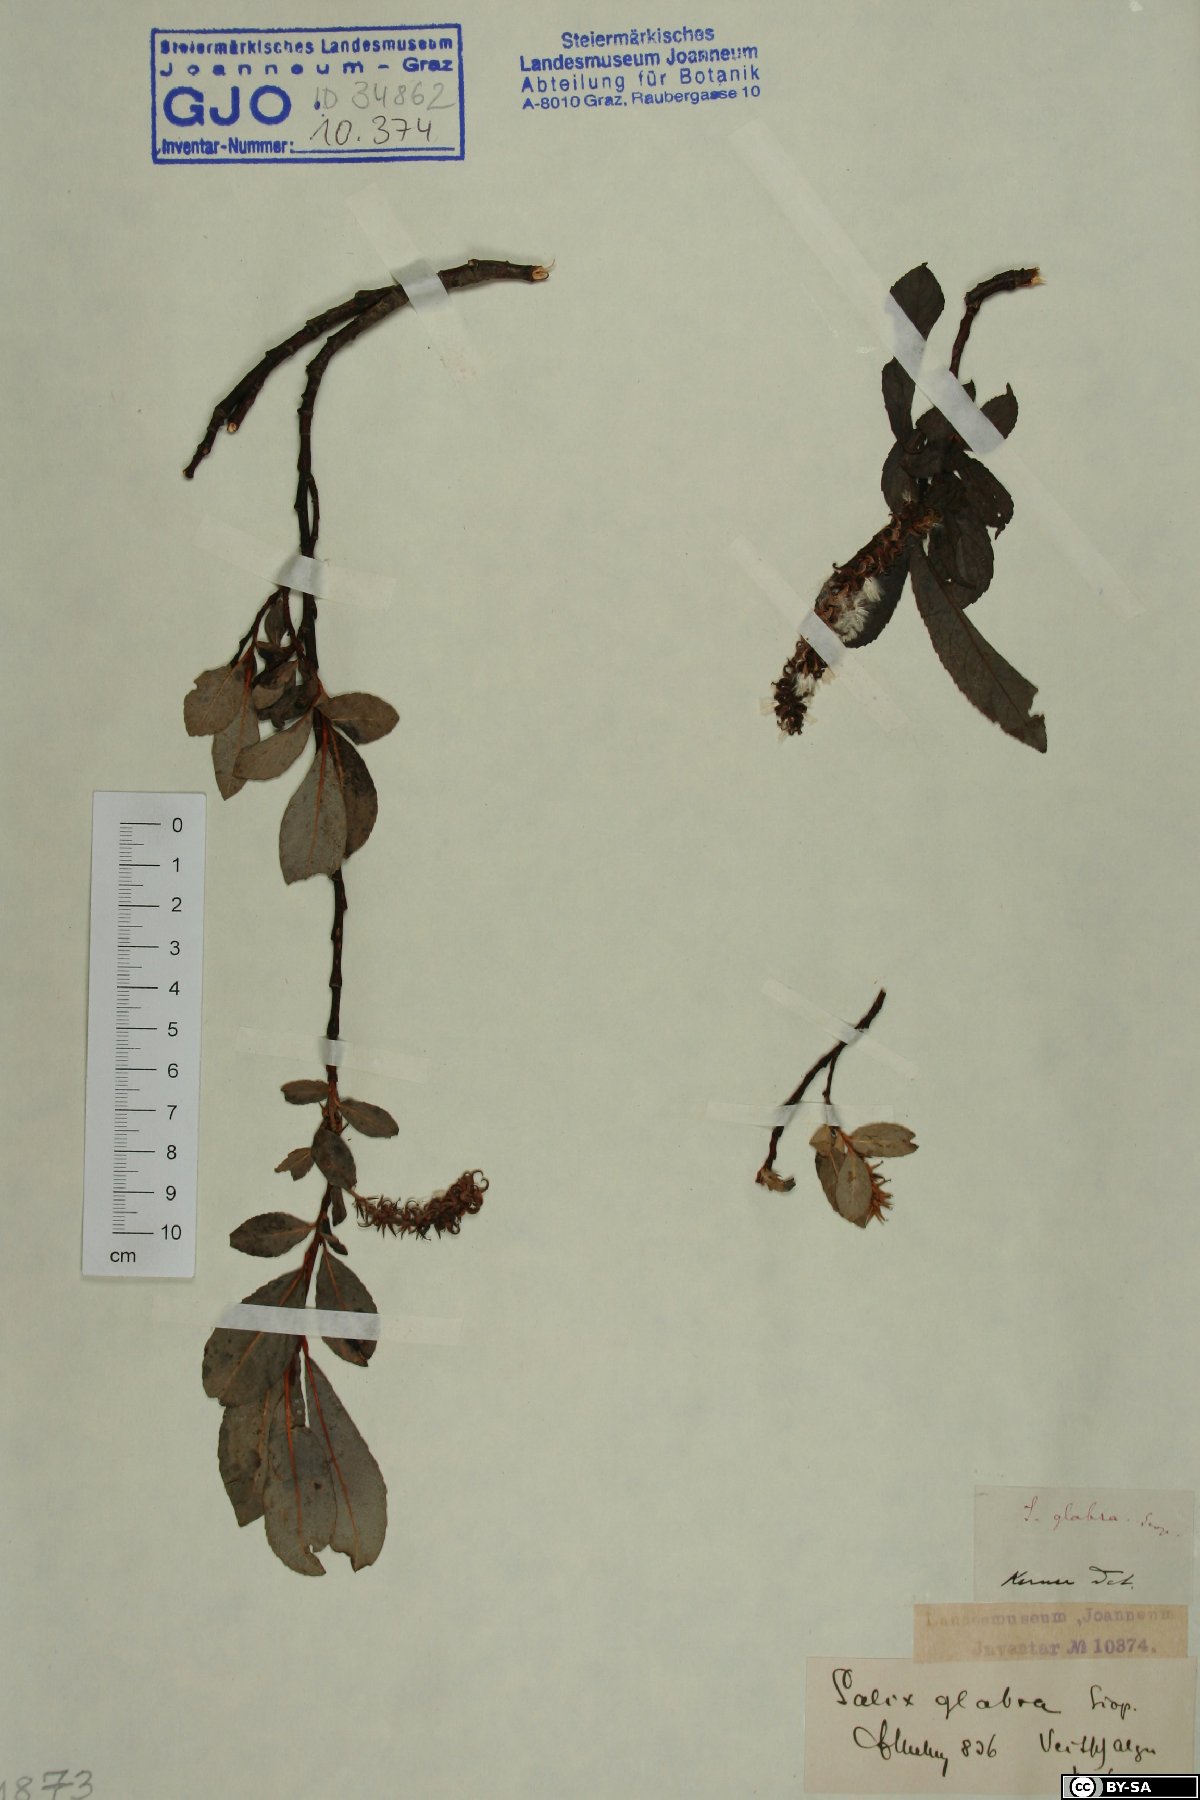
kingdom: Plantae
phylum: Tracheophyta
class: Magnoliopsida
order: Malpighiales
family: Salicaceae
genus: Salix
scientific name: Salix glabra
